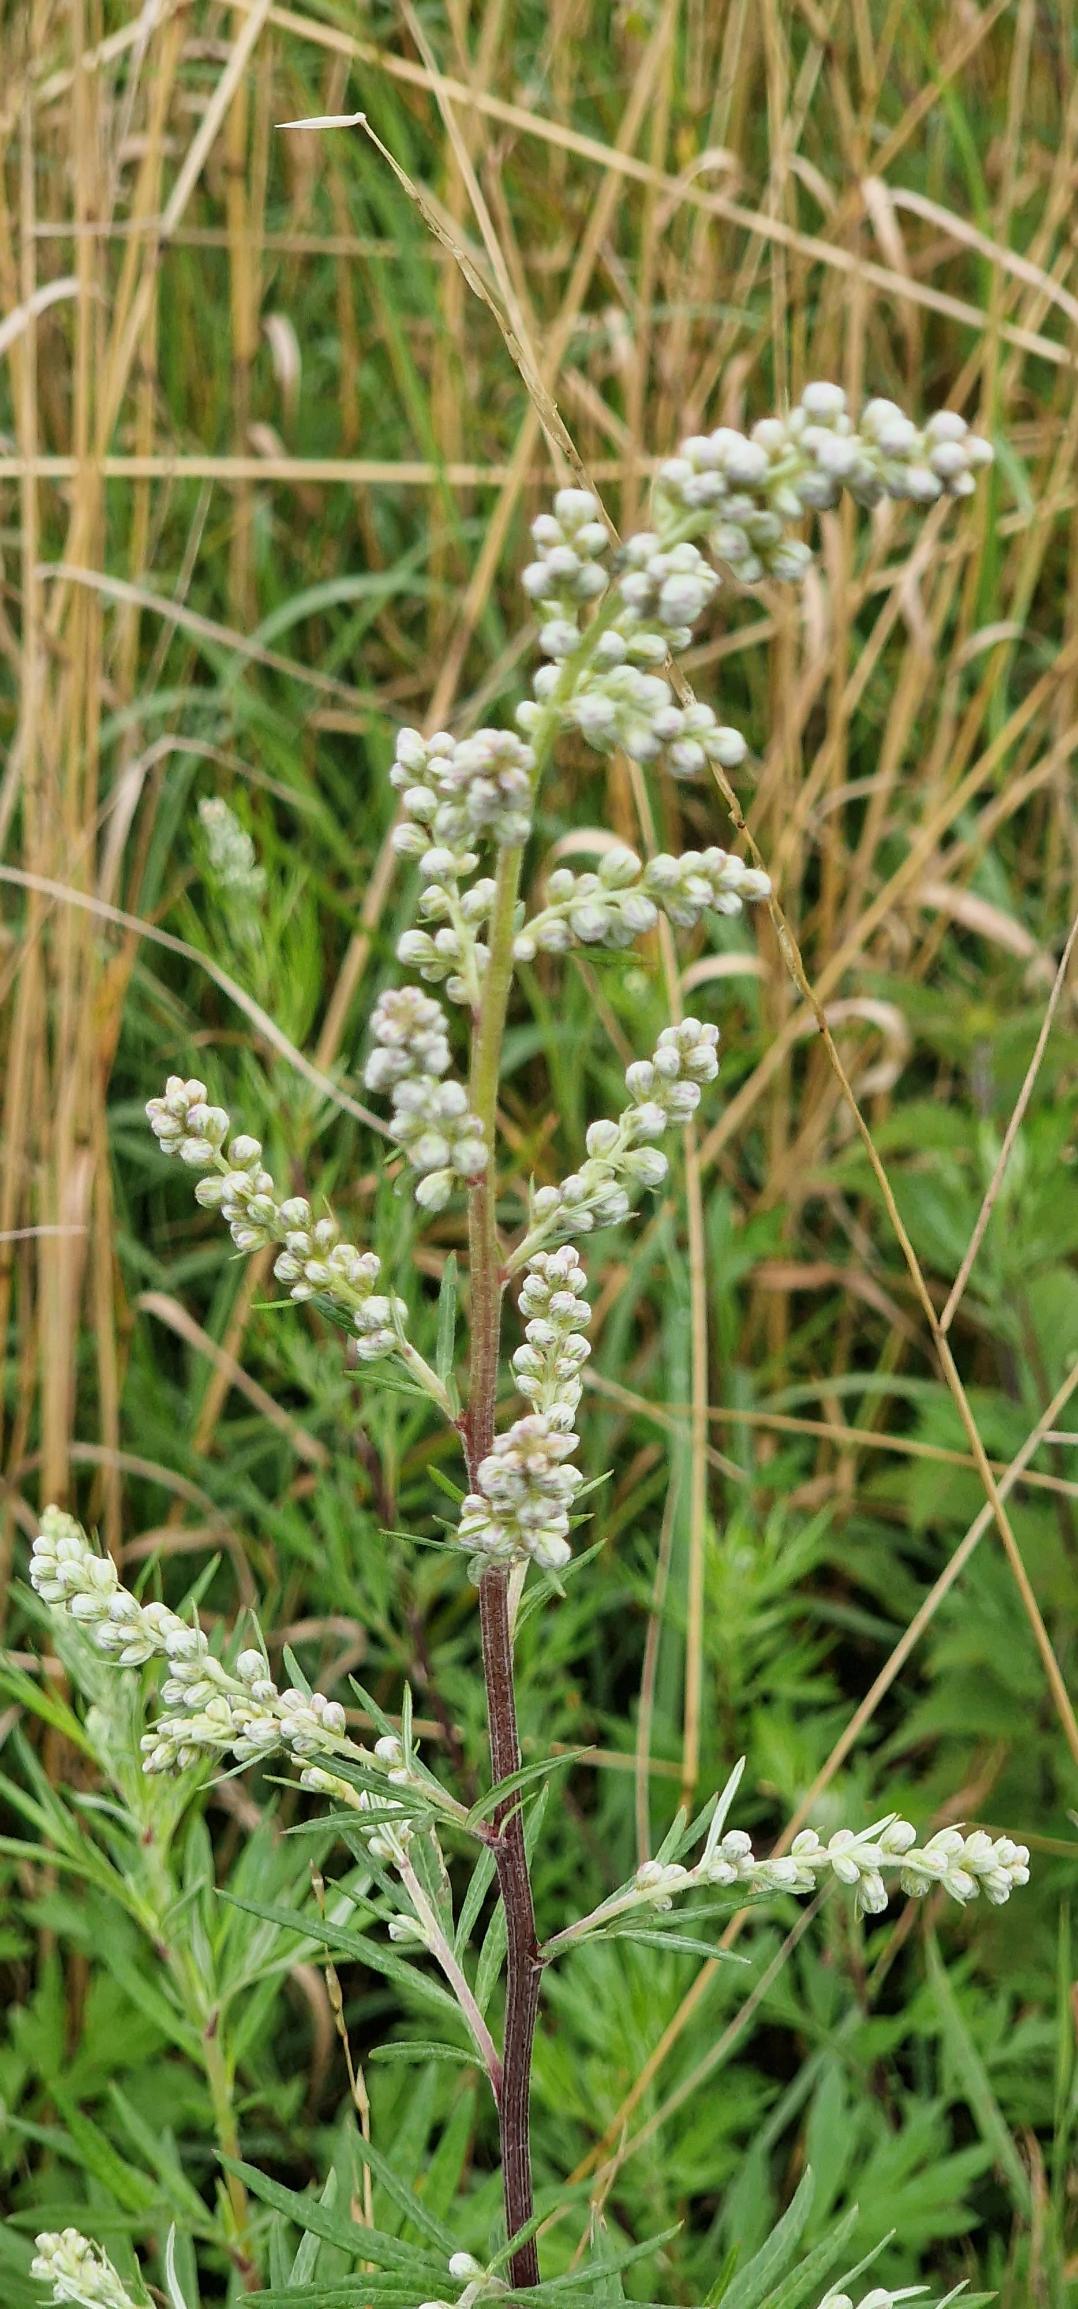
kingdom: Plantae
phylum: Tracheophyta
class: Magnoliopsida
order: Asterales
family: Asteraceae
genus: Artemisia
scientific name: Artemisia vulgaris
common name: Grå-bynke
